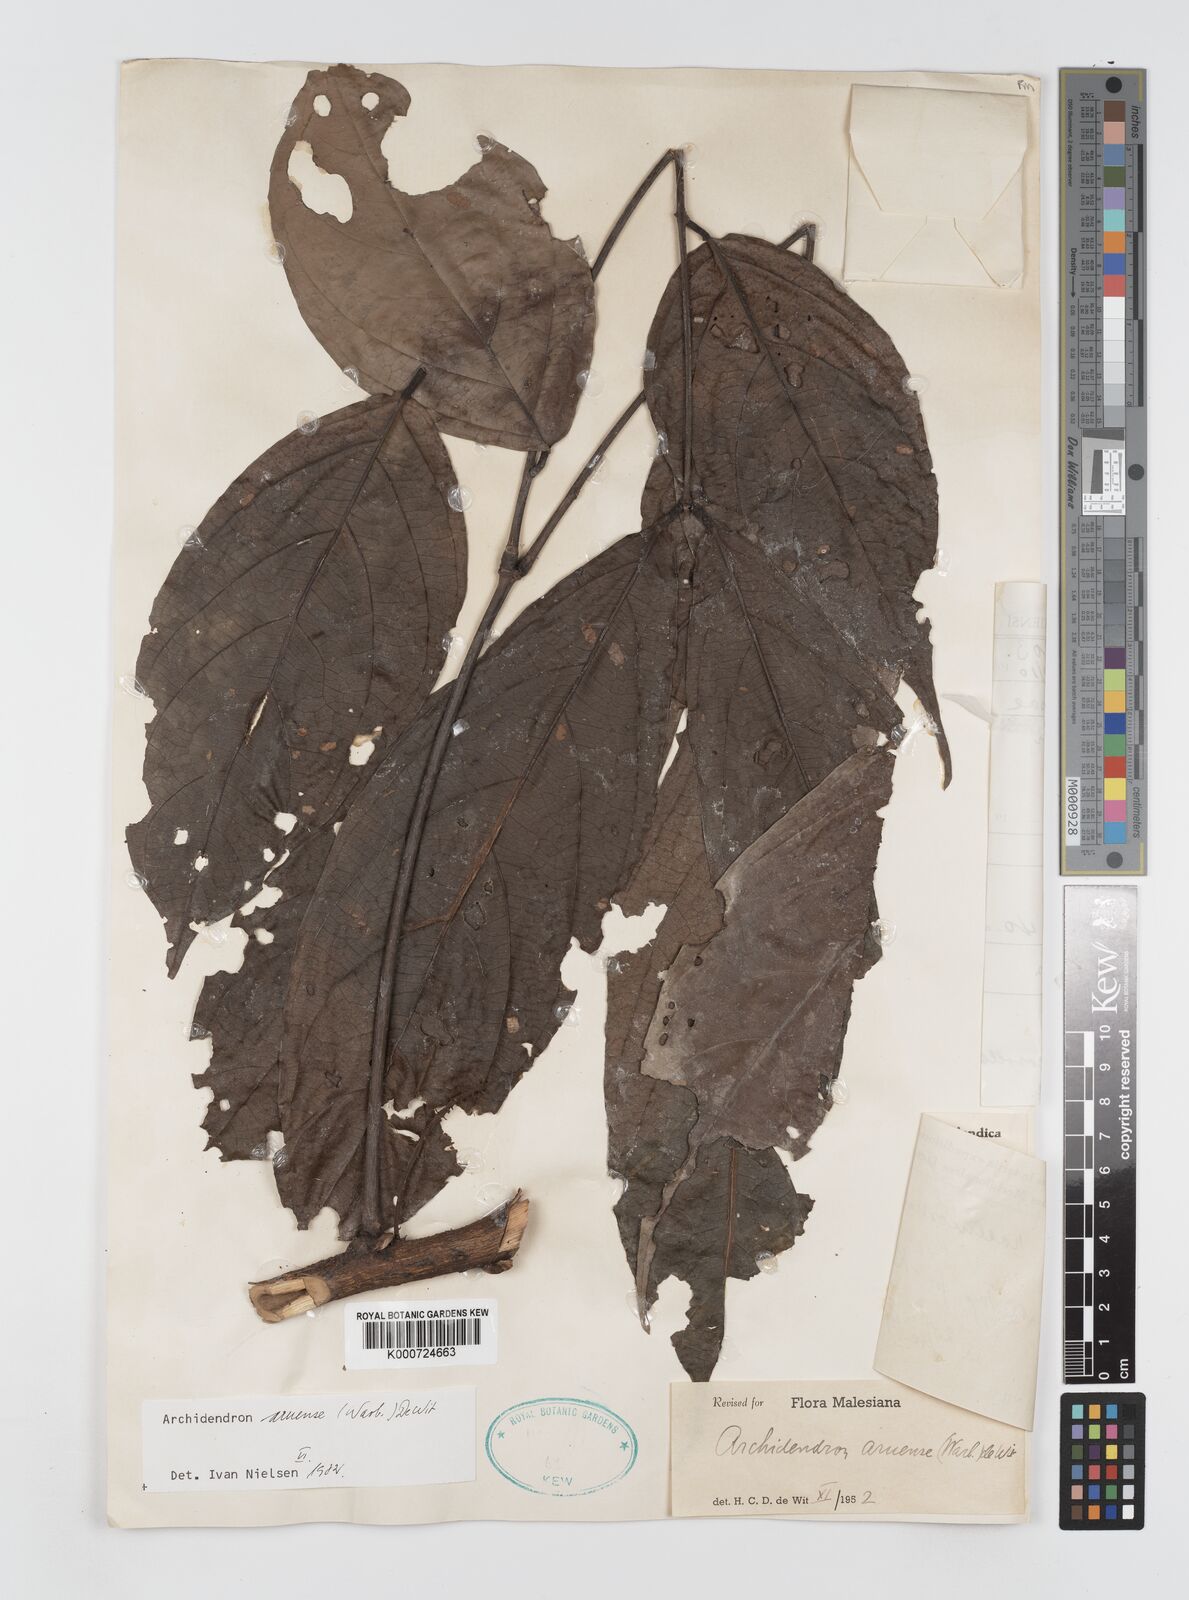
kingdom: Plantae
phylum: Tracheophyta
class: Magnoliopsida
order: Fabales
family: Fabaceae
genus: Archidendron
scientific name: Archidendron aruense
